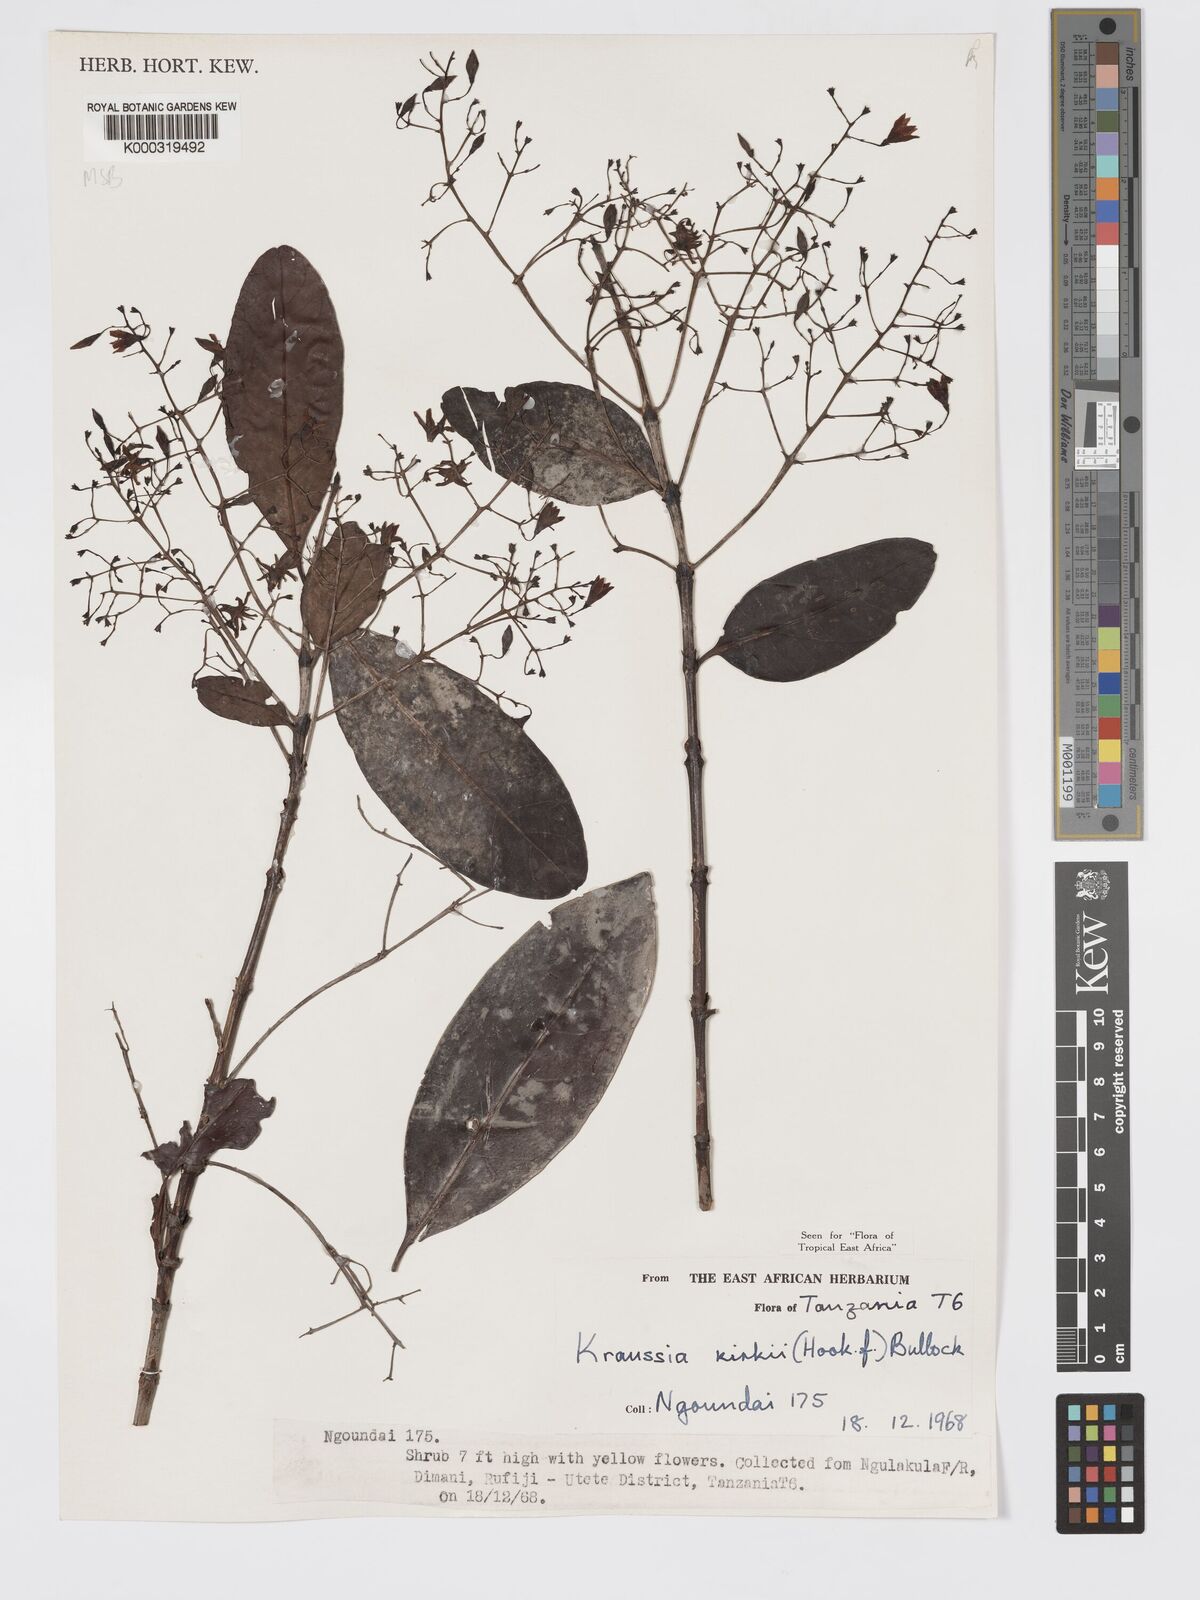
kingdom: Plantae
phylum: Tracheophyta
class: Magnoliopsida
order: Gentianales
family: Rubiaceae
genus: Kraussia
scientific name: Kraussia kirkii
